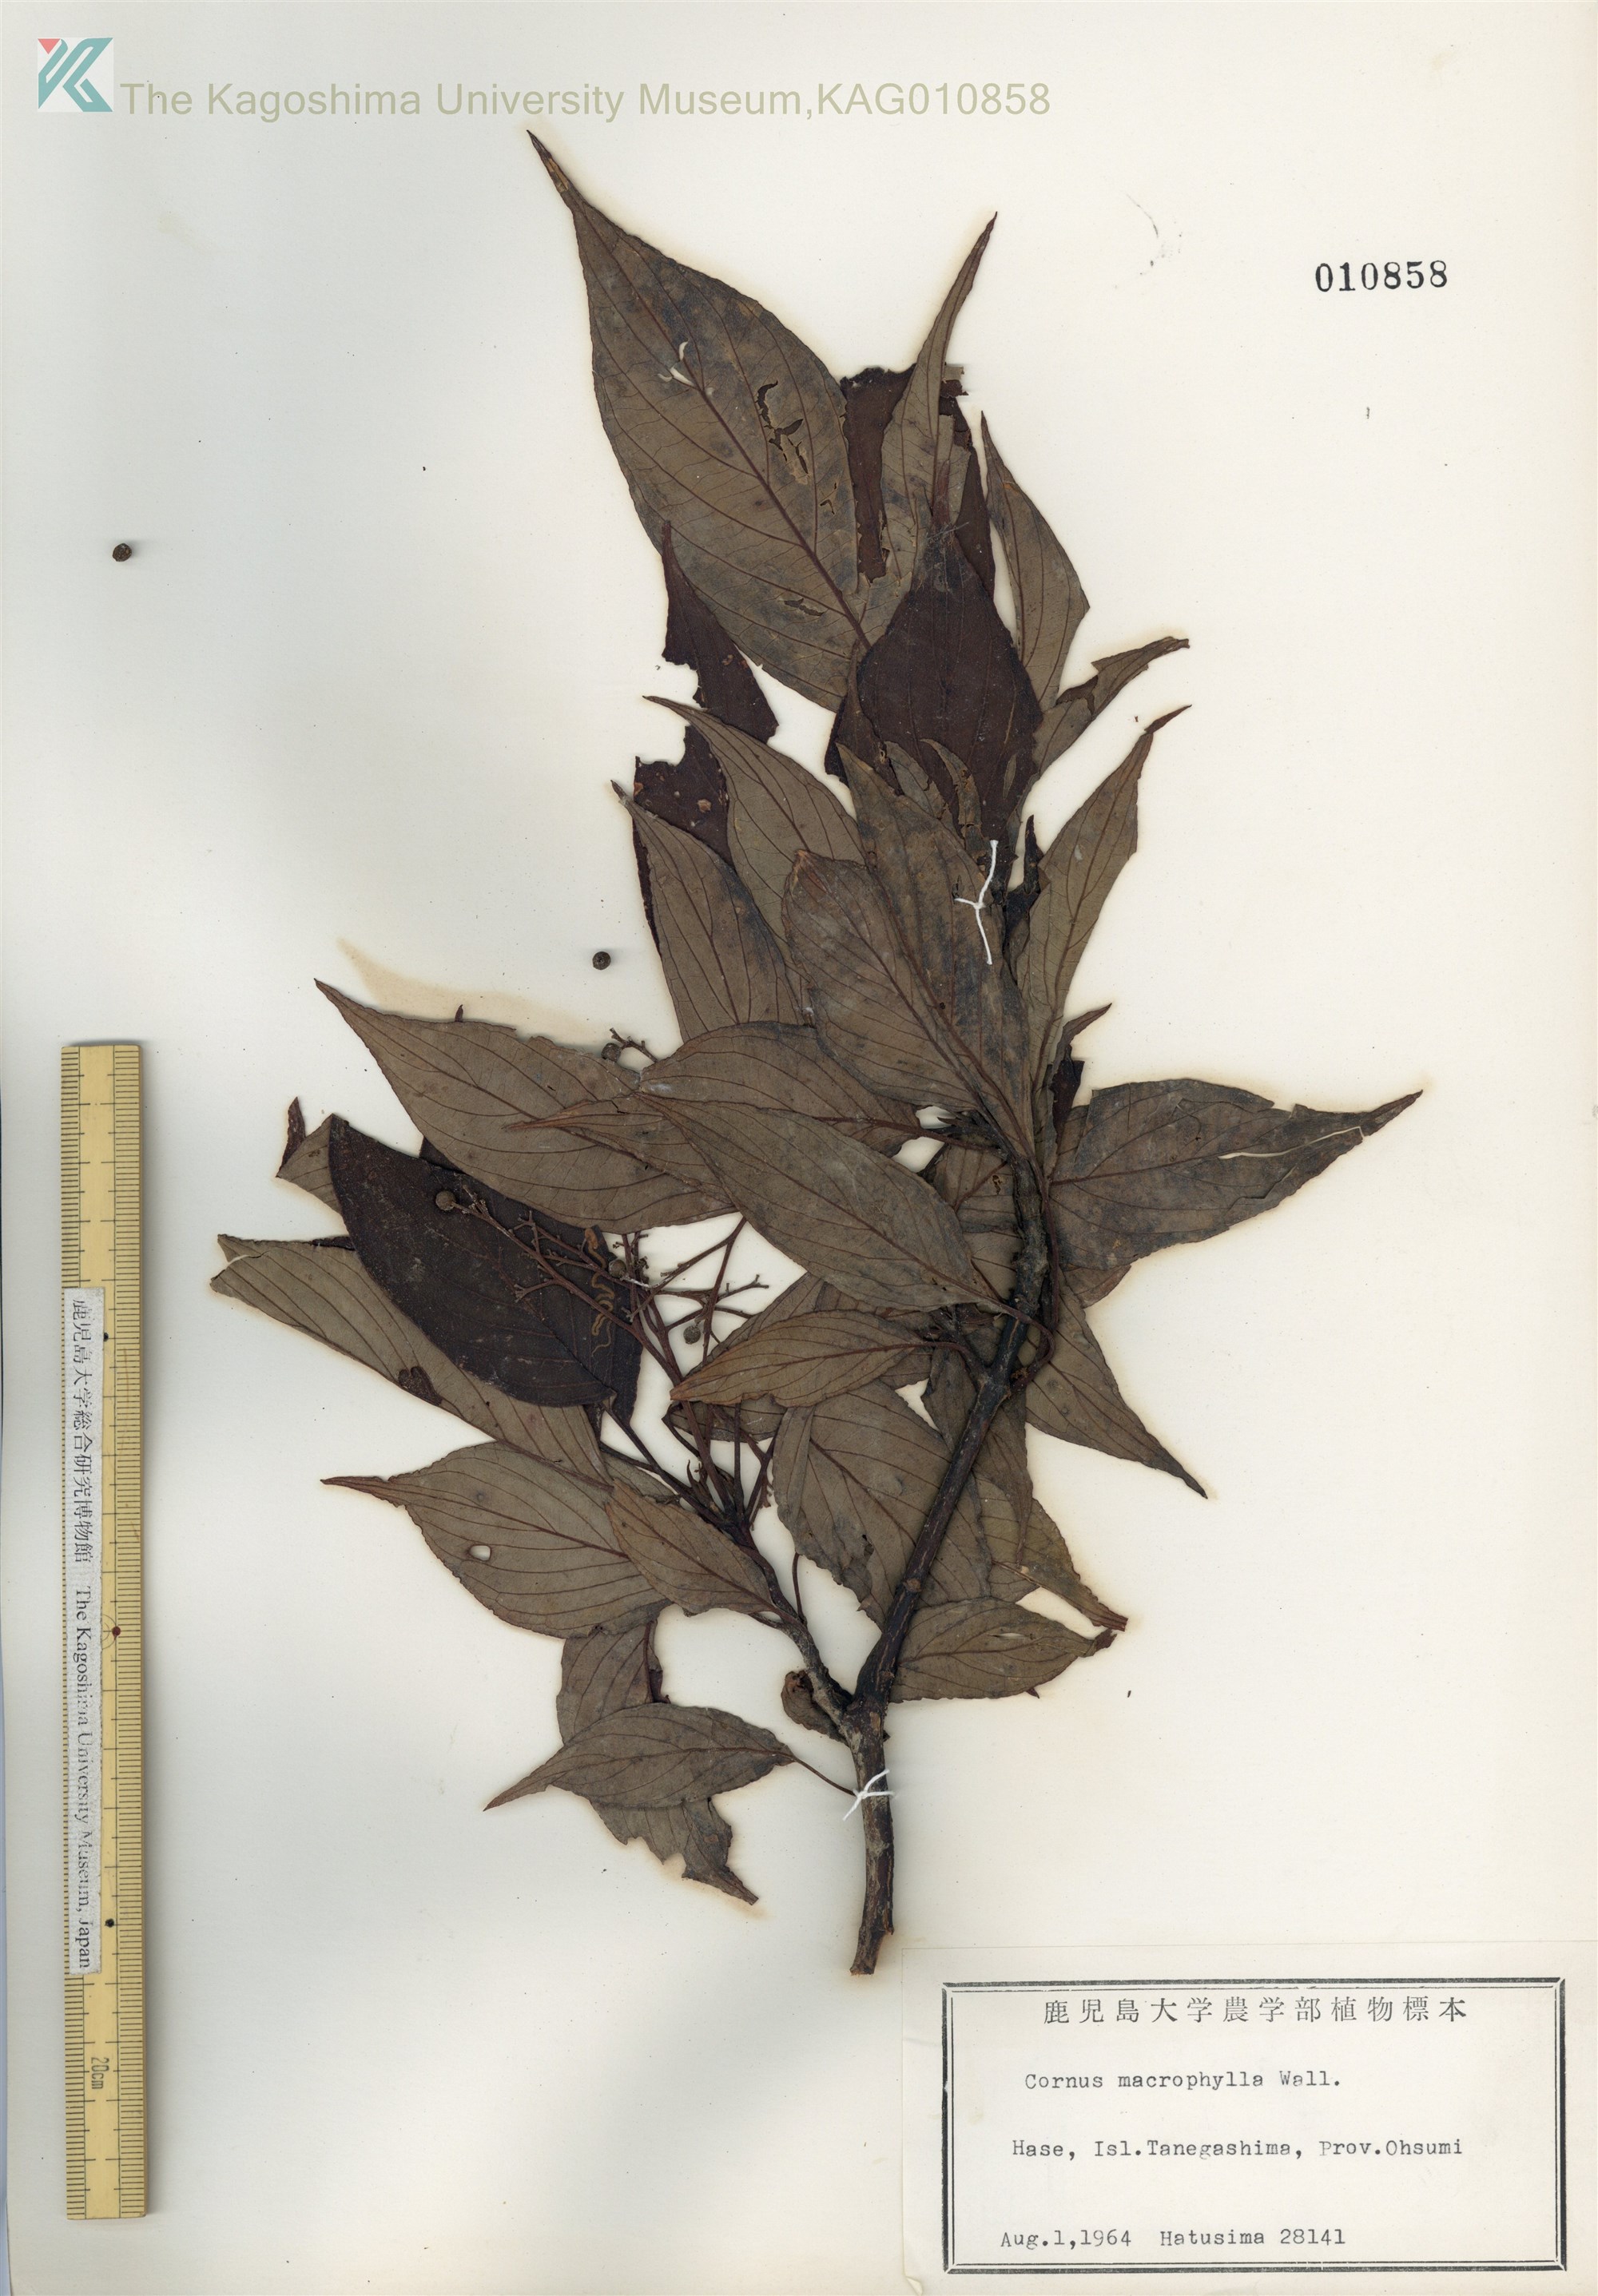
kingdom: Plantae
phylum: Tracheophyta
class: Magnoliopsida
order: Cornales
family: Cornaceae
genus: Cornus
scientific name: Cornus macrophylla
